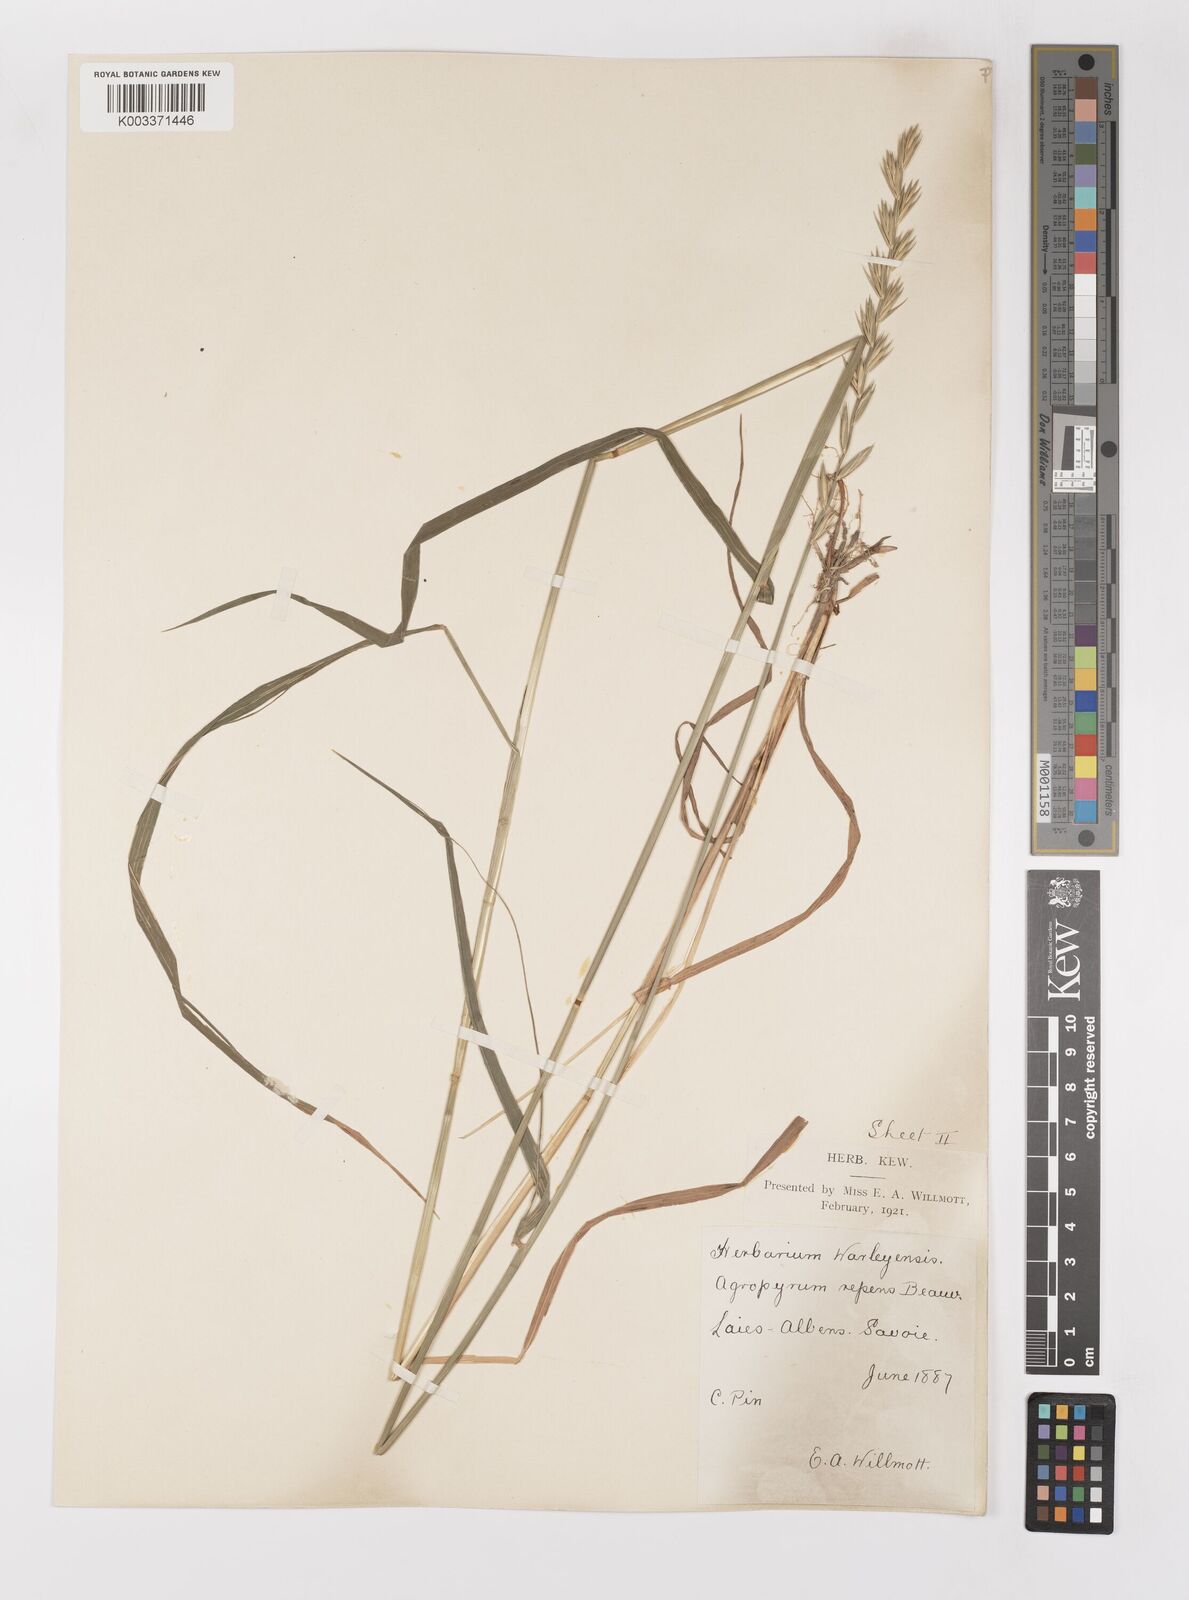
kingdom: Plantae
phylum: Tracheophyta
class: Liliopsida
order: Poales
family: Poaceae
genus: Elymus
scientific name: Elymus repens
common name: Quackgrass
